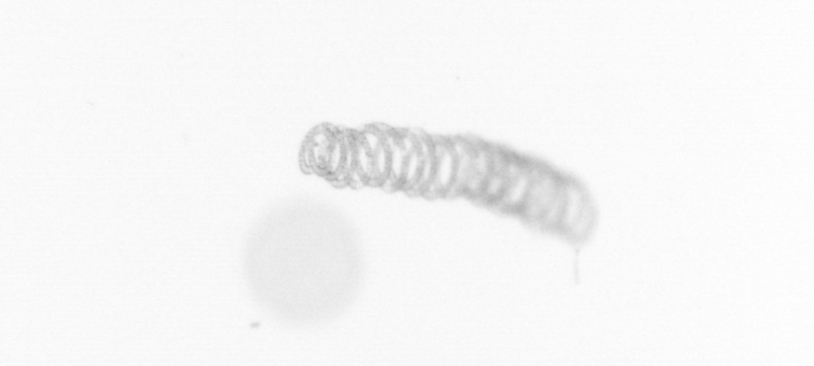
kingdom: Chromista
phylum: Ochrophyta
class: Bacillariophyceae
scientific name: Bacillariophyceae
